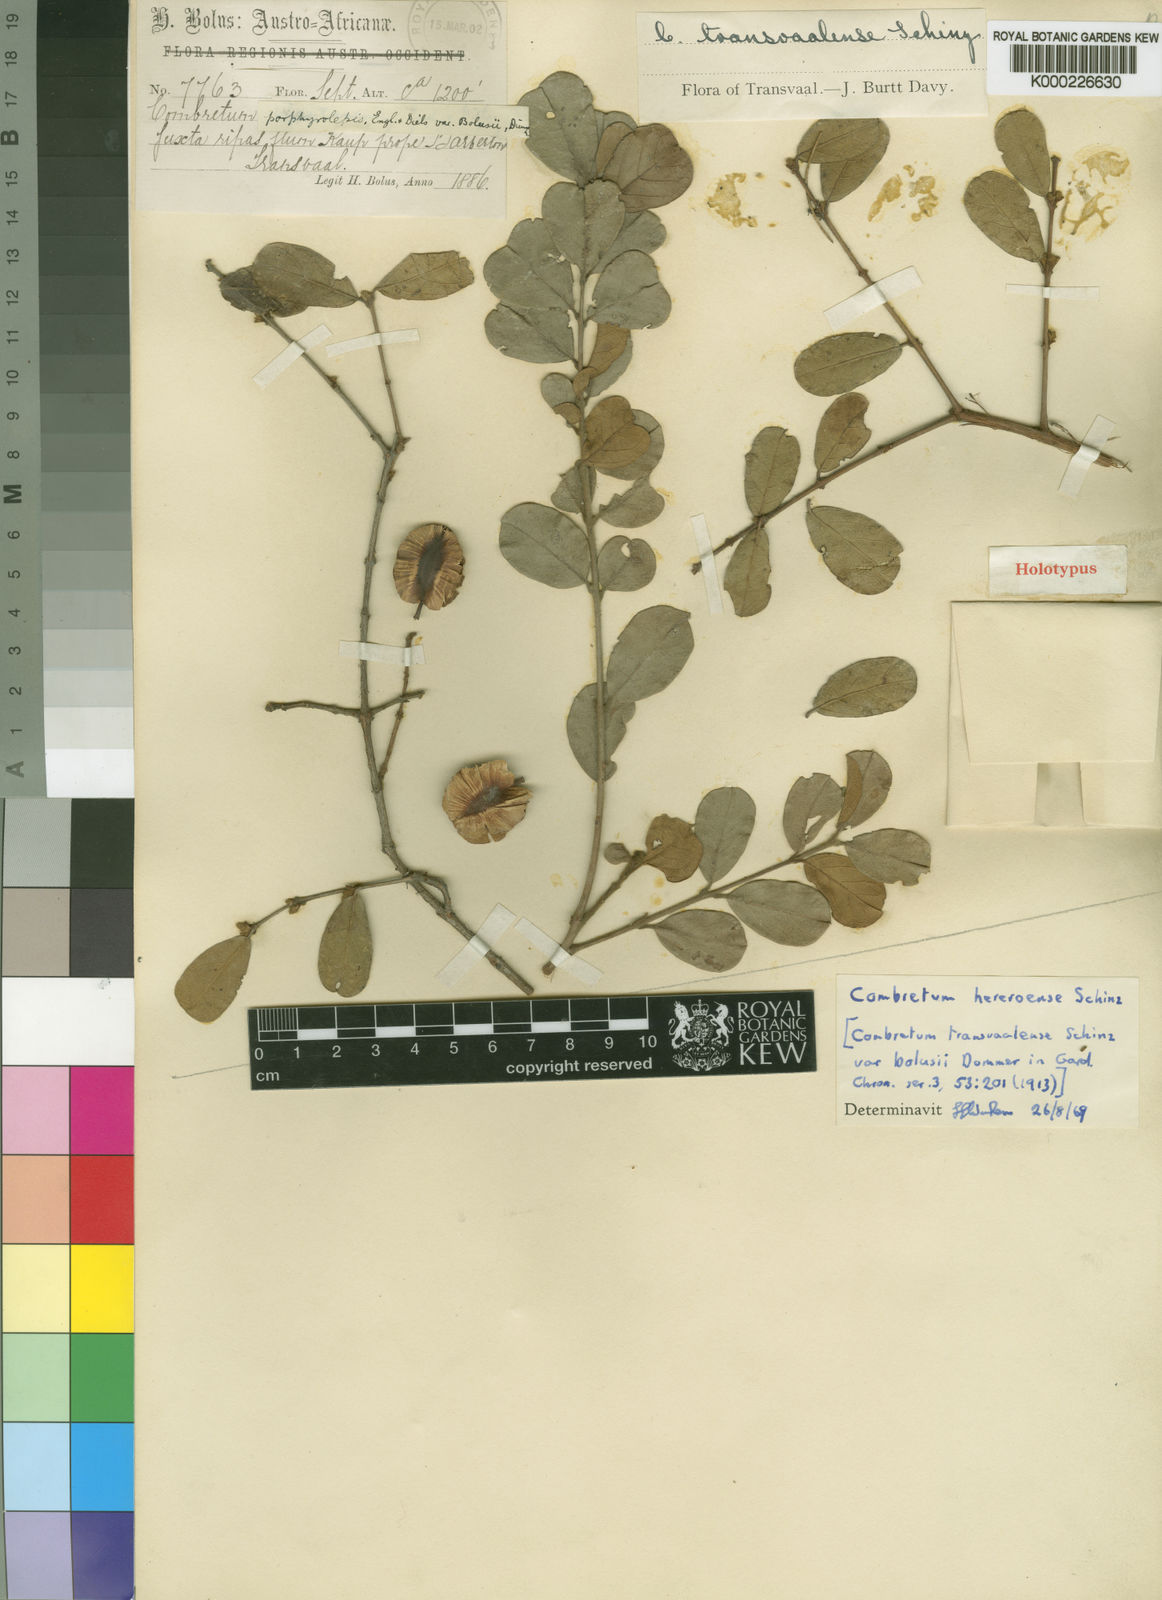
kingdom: Plantae
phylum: Tracheophyta
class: Magnoliopsida
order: Myrtales
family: Combretaceae
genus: Combretum
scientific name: Combretum hereroense
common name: Russet bushwillow
